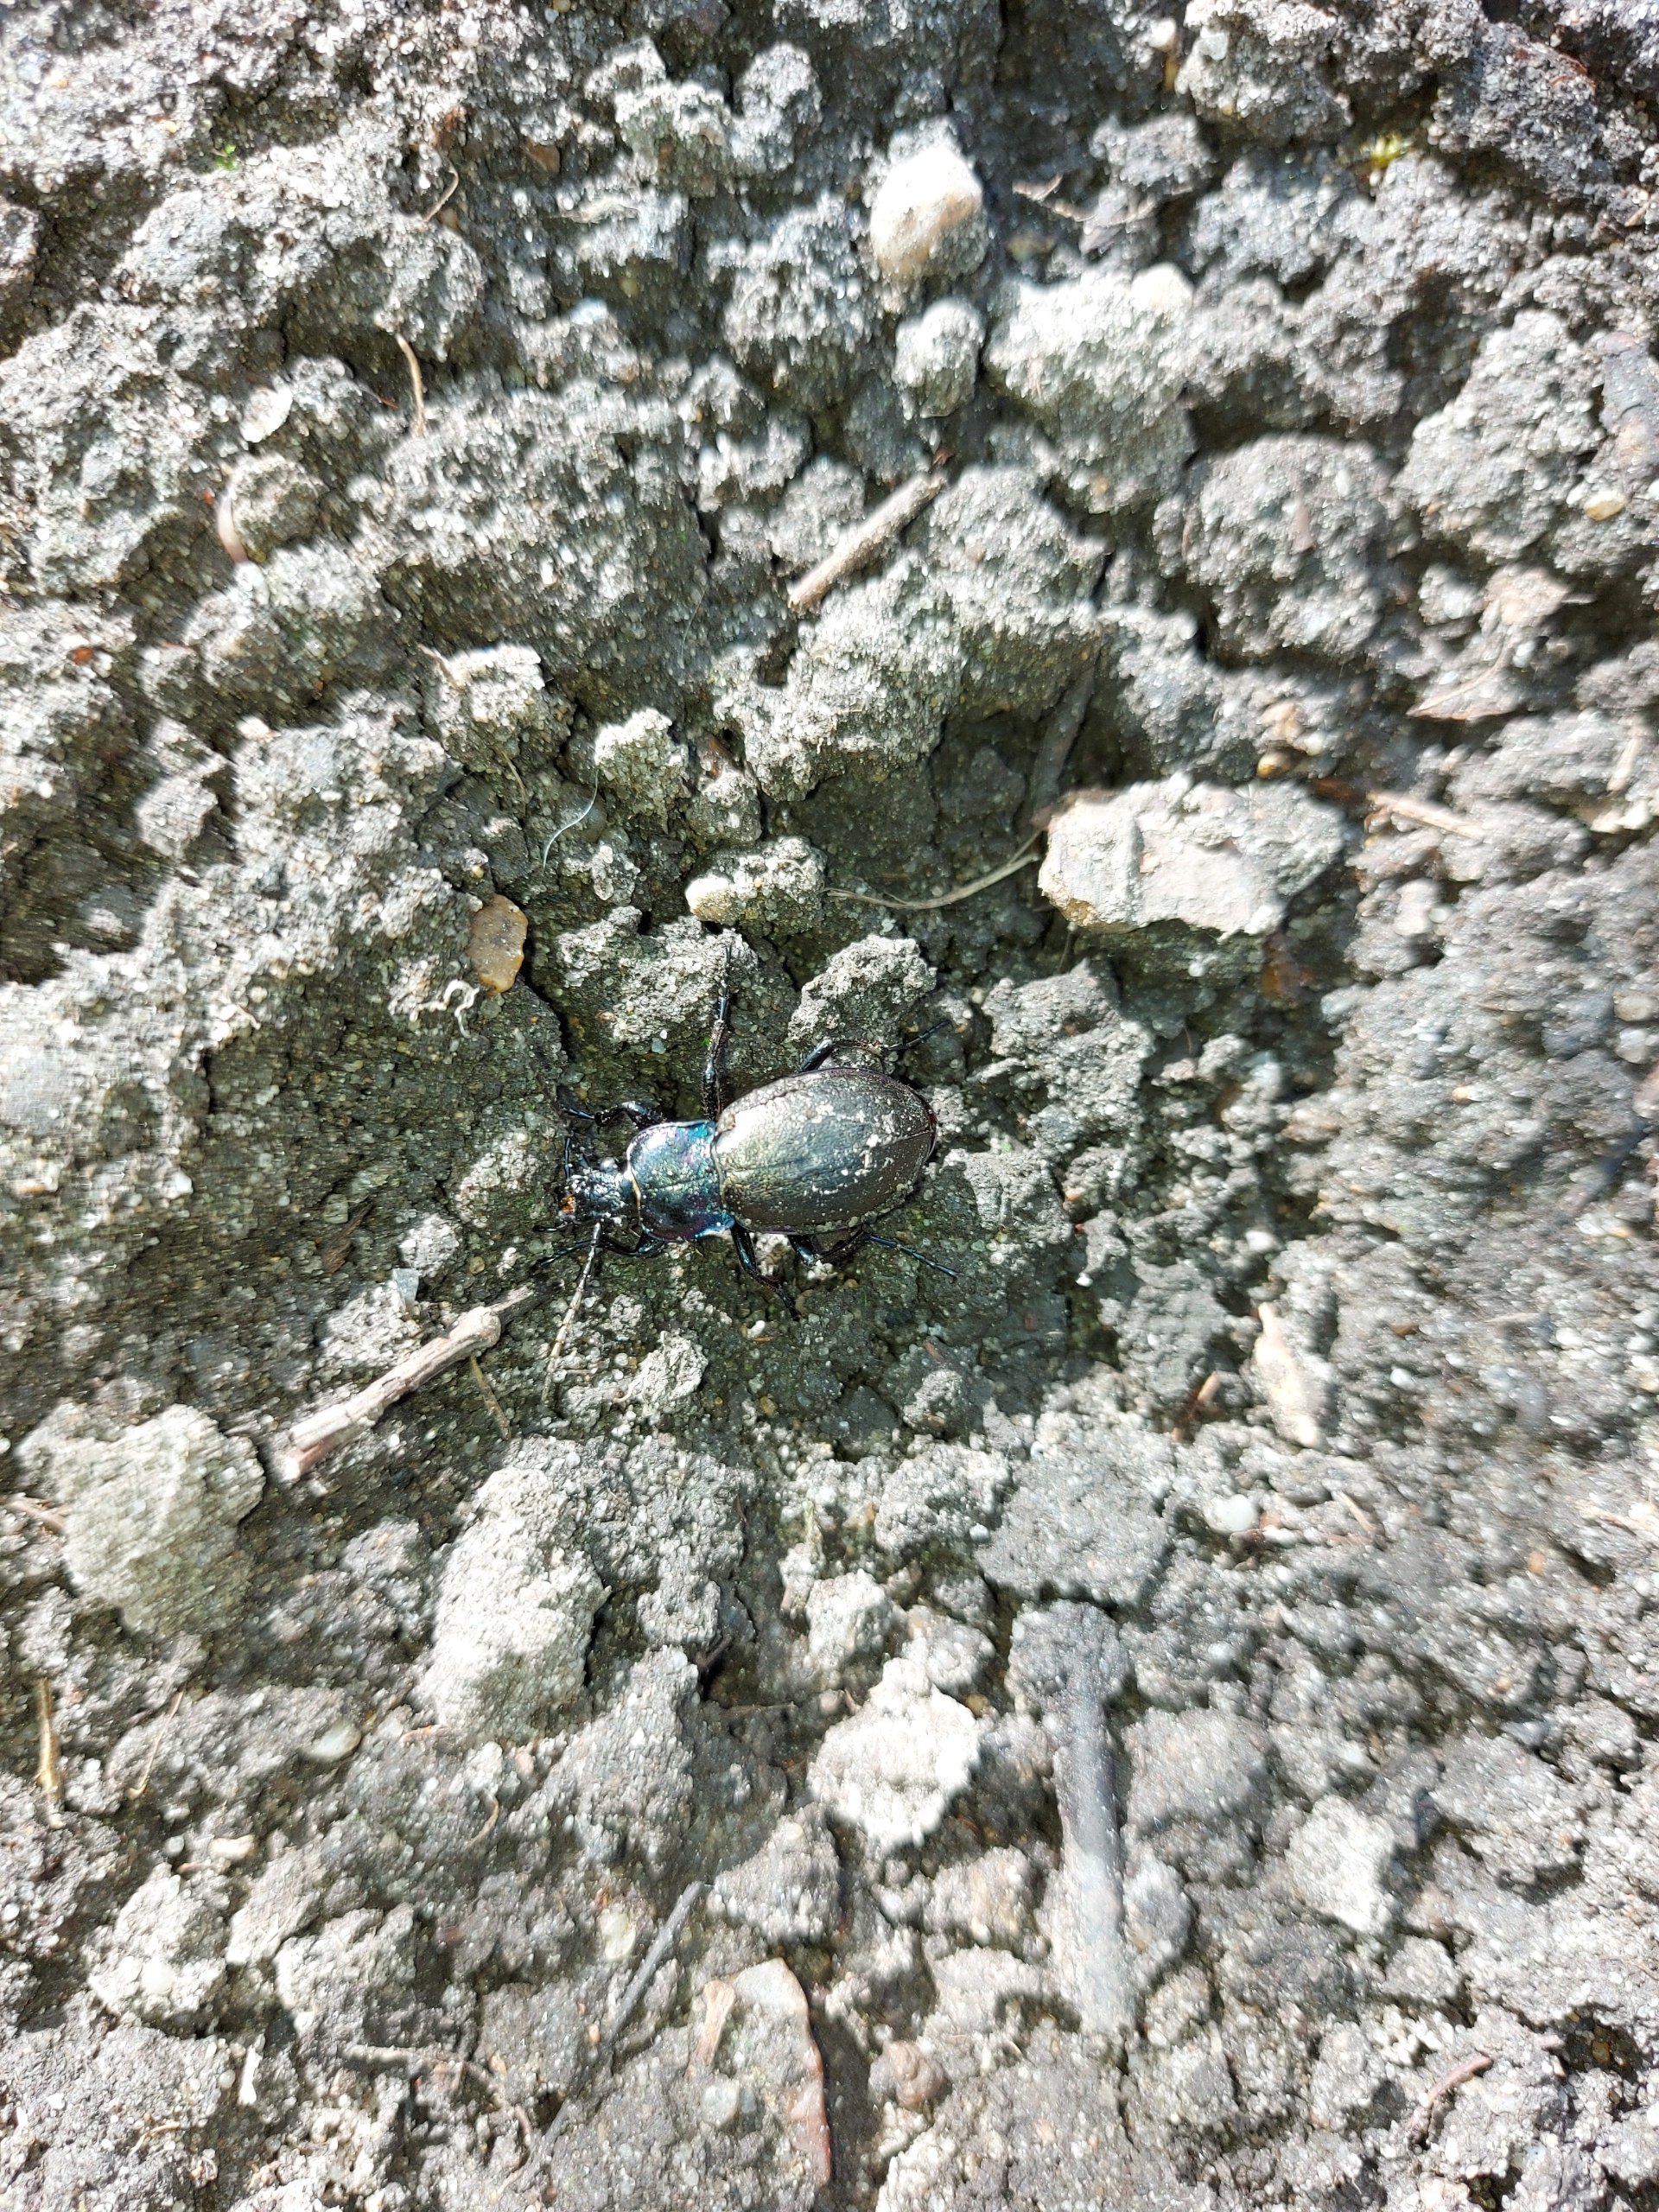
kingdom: Animalia
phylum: Arthropoda
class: Insecta
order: Coleoptera
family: Carabidae
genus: Carabus
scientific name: Carabus nemoralis
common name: Kratløber
